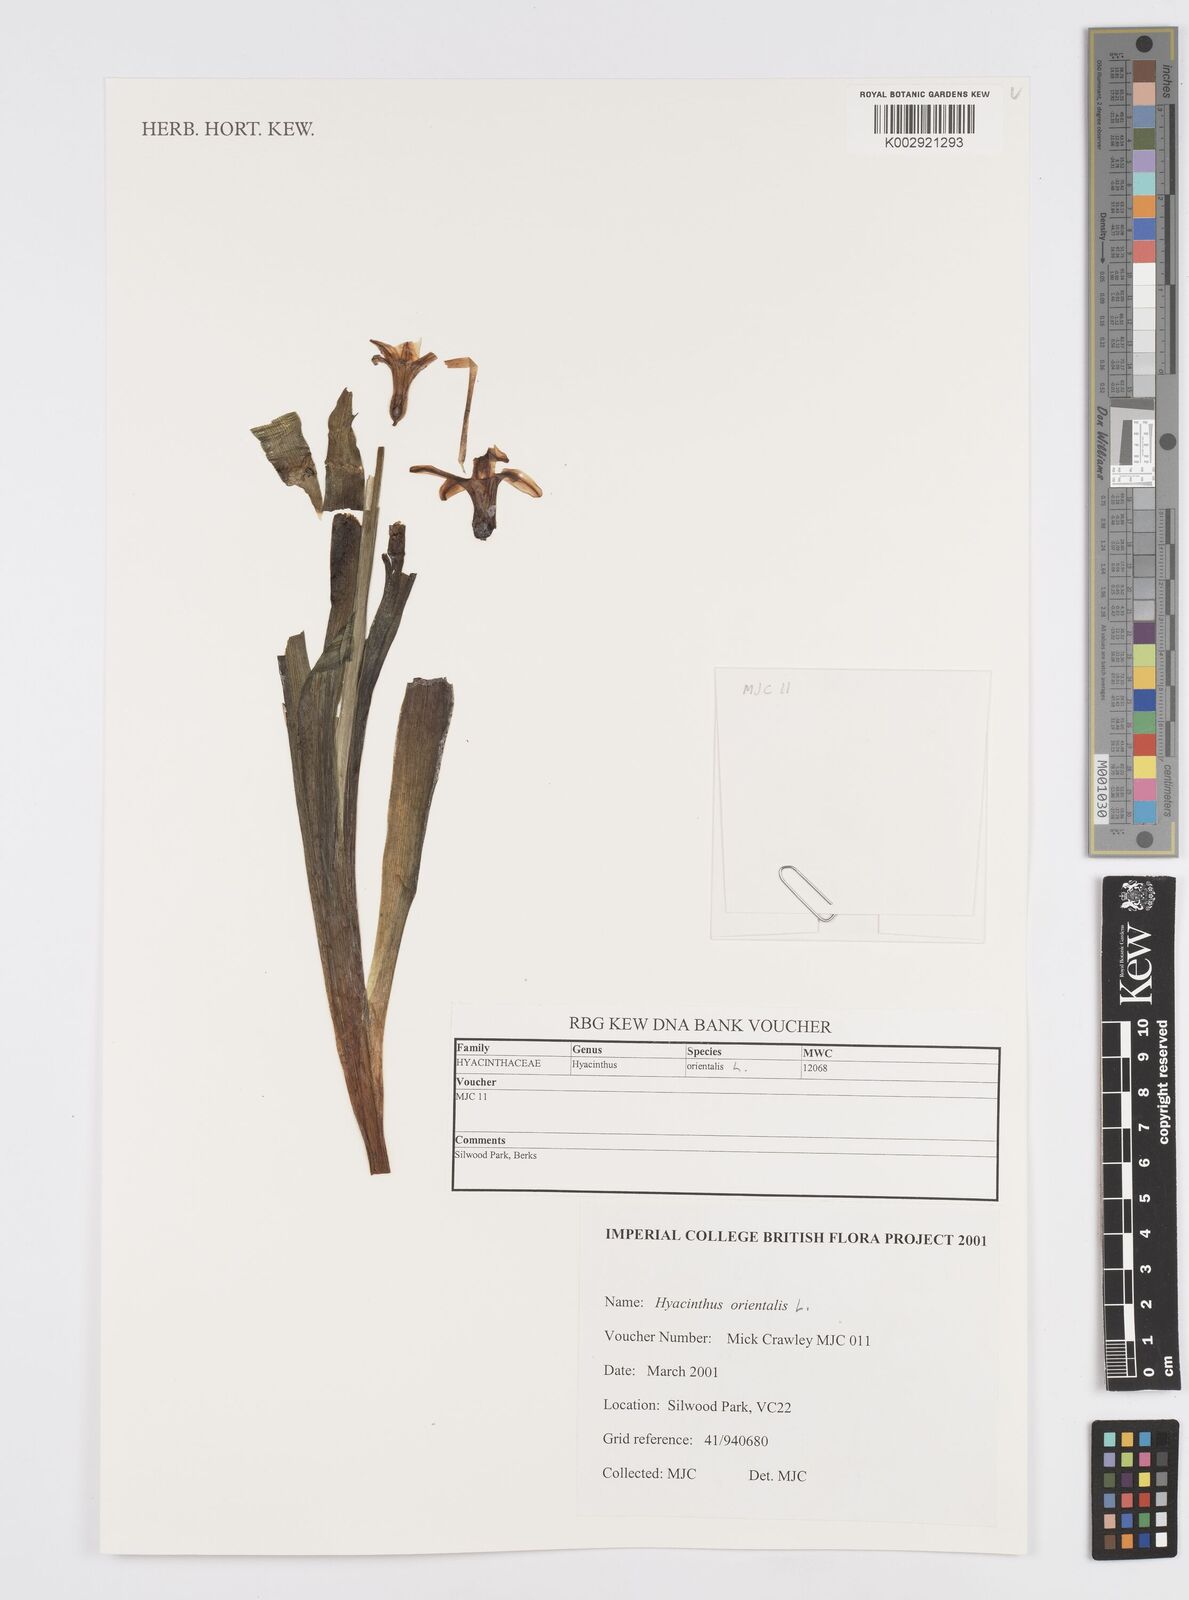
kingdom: Plantae
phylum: Tracheophyta
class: Liliopsida
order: Asparagales
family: Asparagaceae
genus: Hyacinthus
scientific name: Hyacinthus orientalis
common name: Hyacinth
